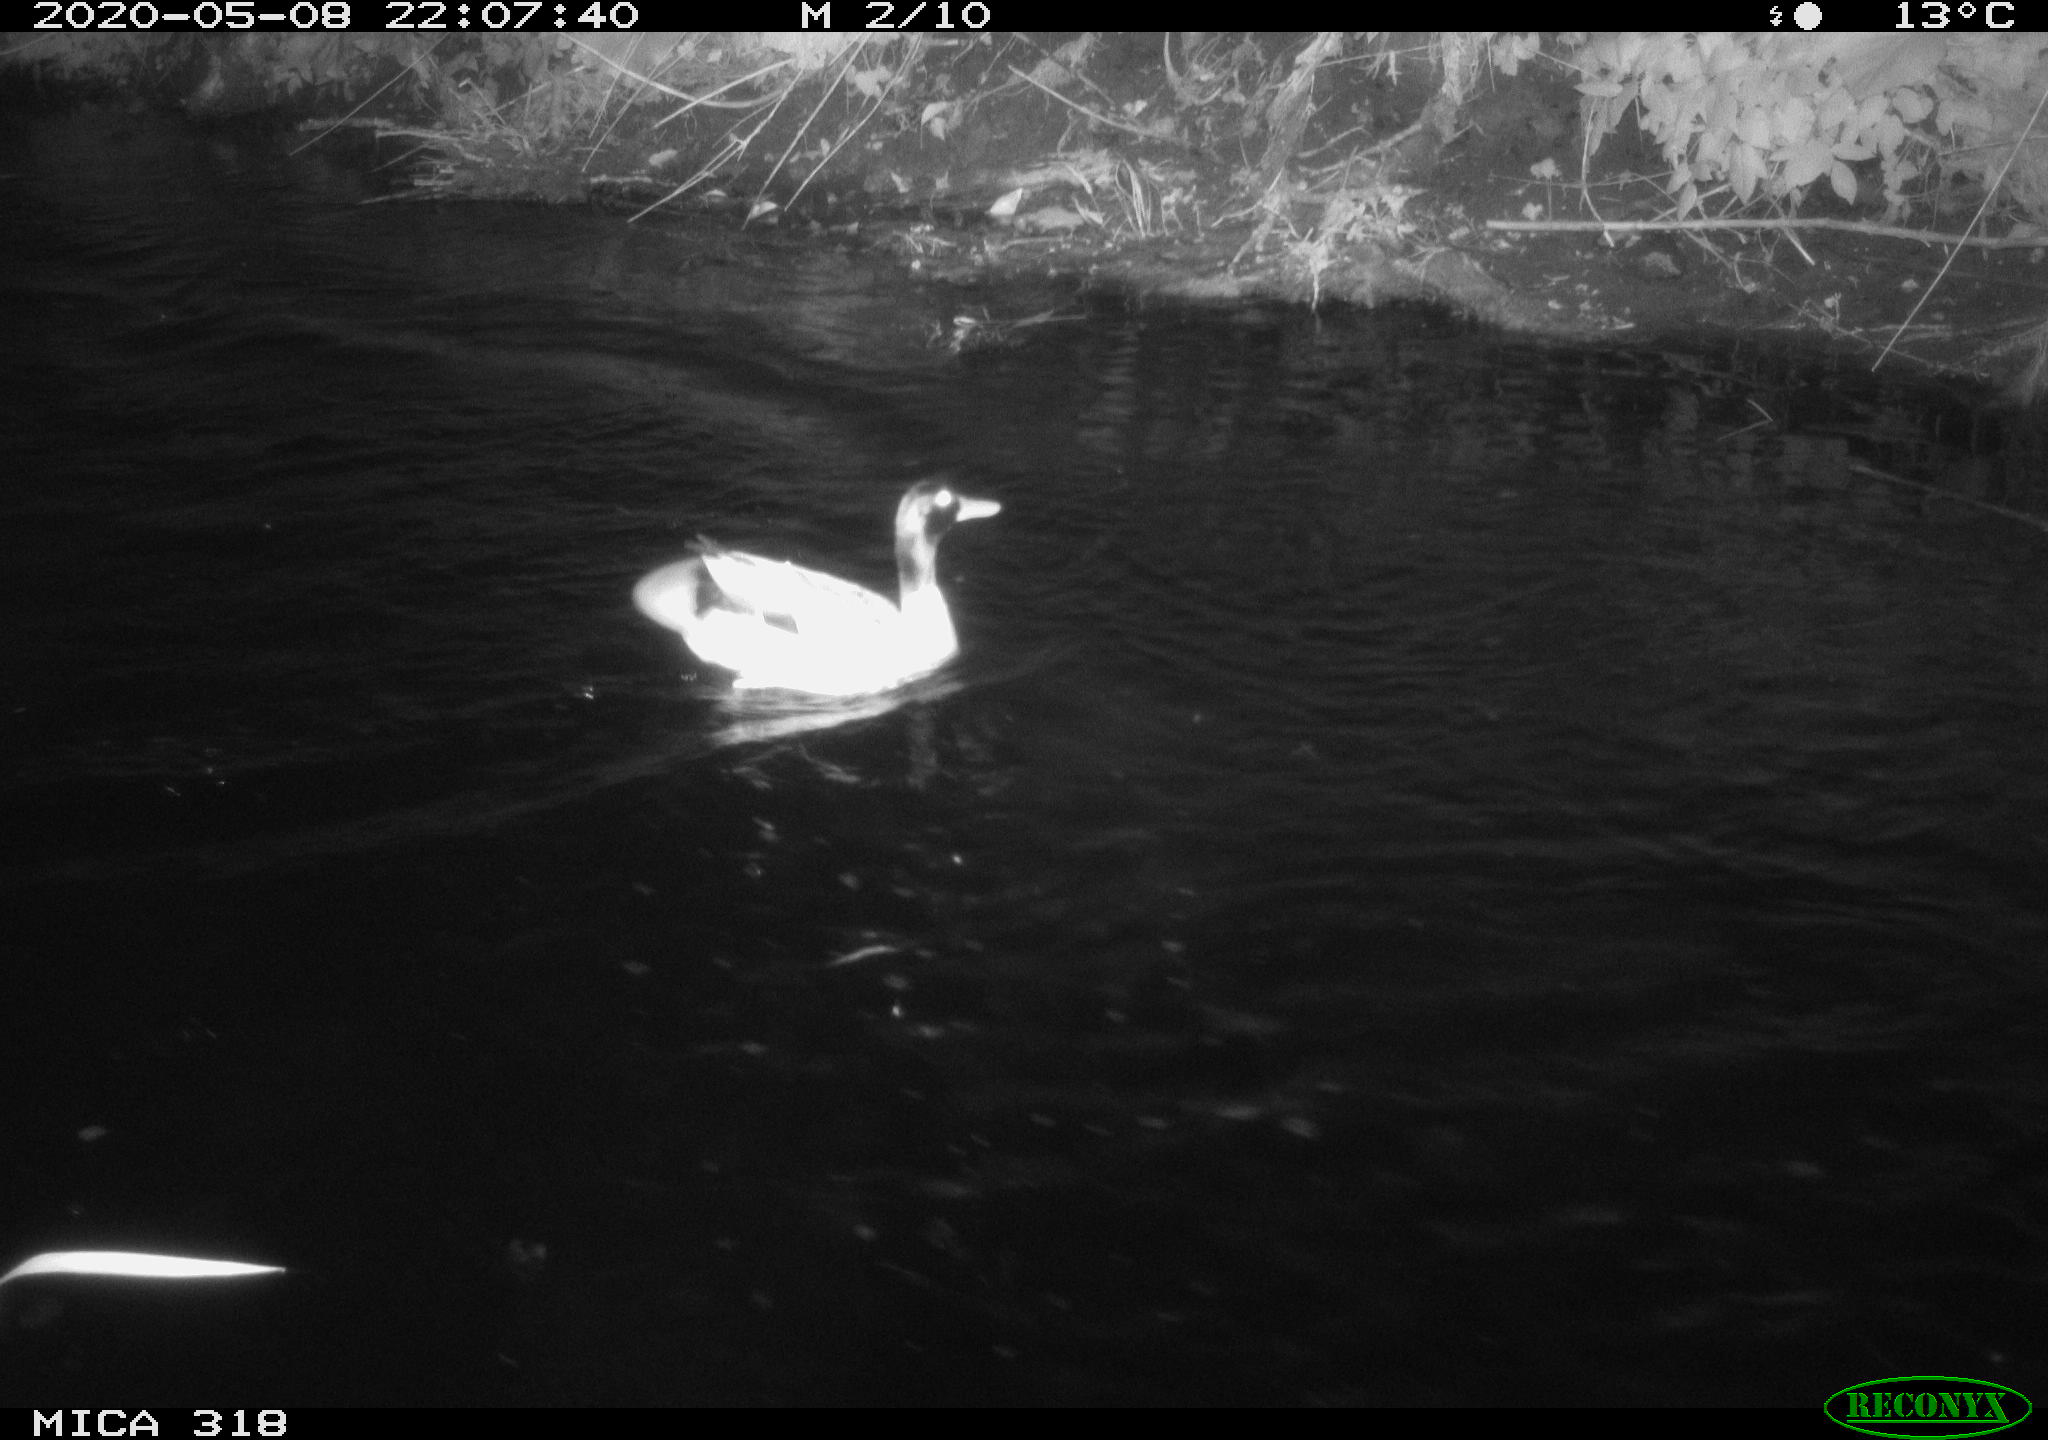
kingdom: Animalia
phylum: Chordata
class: Aves
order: Anseriformes
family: Anatidae
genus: Anas
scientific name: Anas platyrhynchos
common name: Mallard
